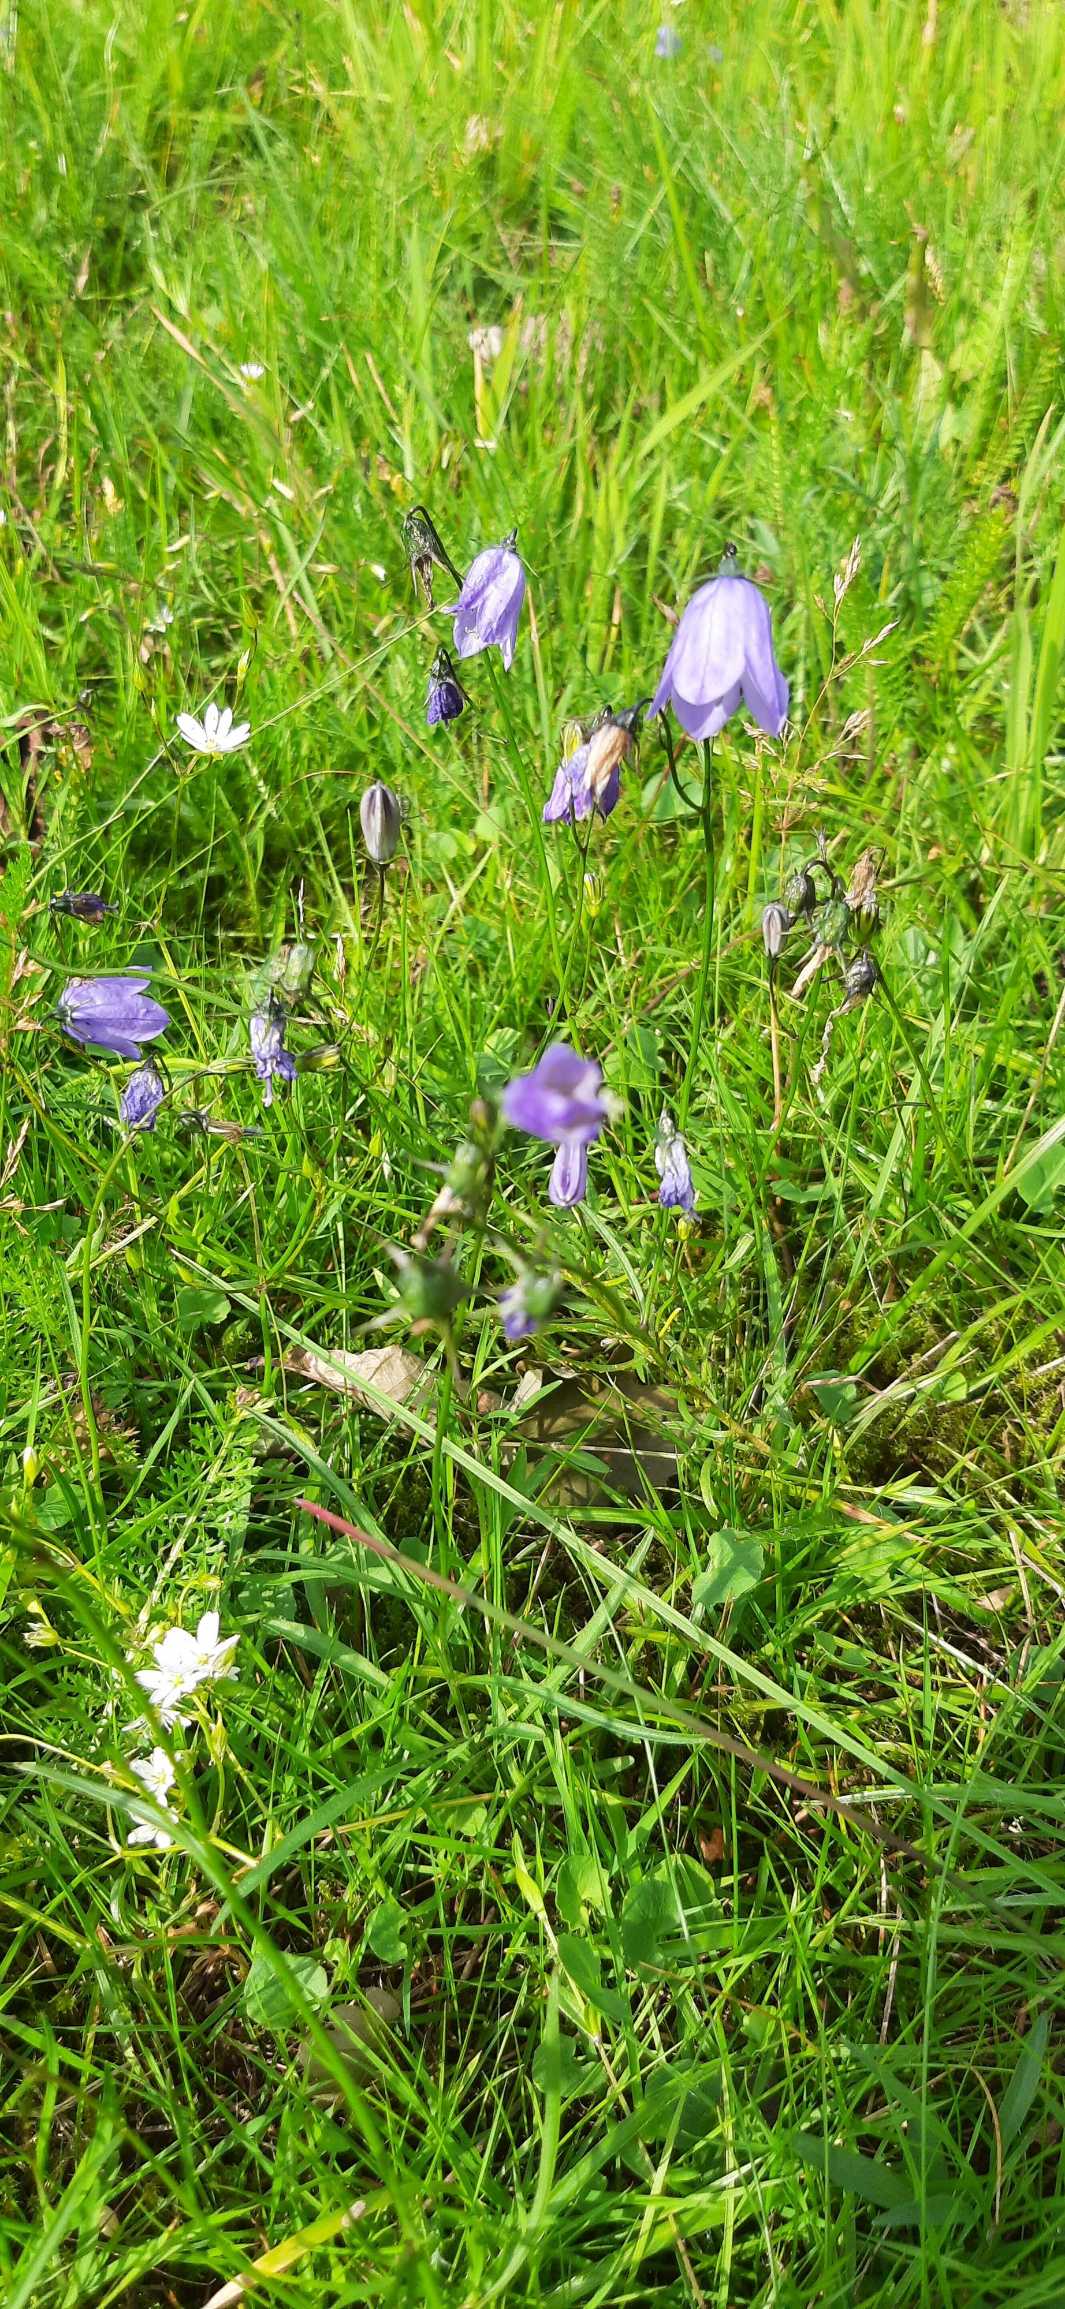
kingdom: Plantae
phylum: Tracheophyta
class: Magnoliopsida
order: Asterales
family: Campanulaceae
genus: Campanula
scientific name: Campanula rotundifolia
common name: Liden klokke
